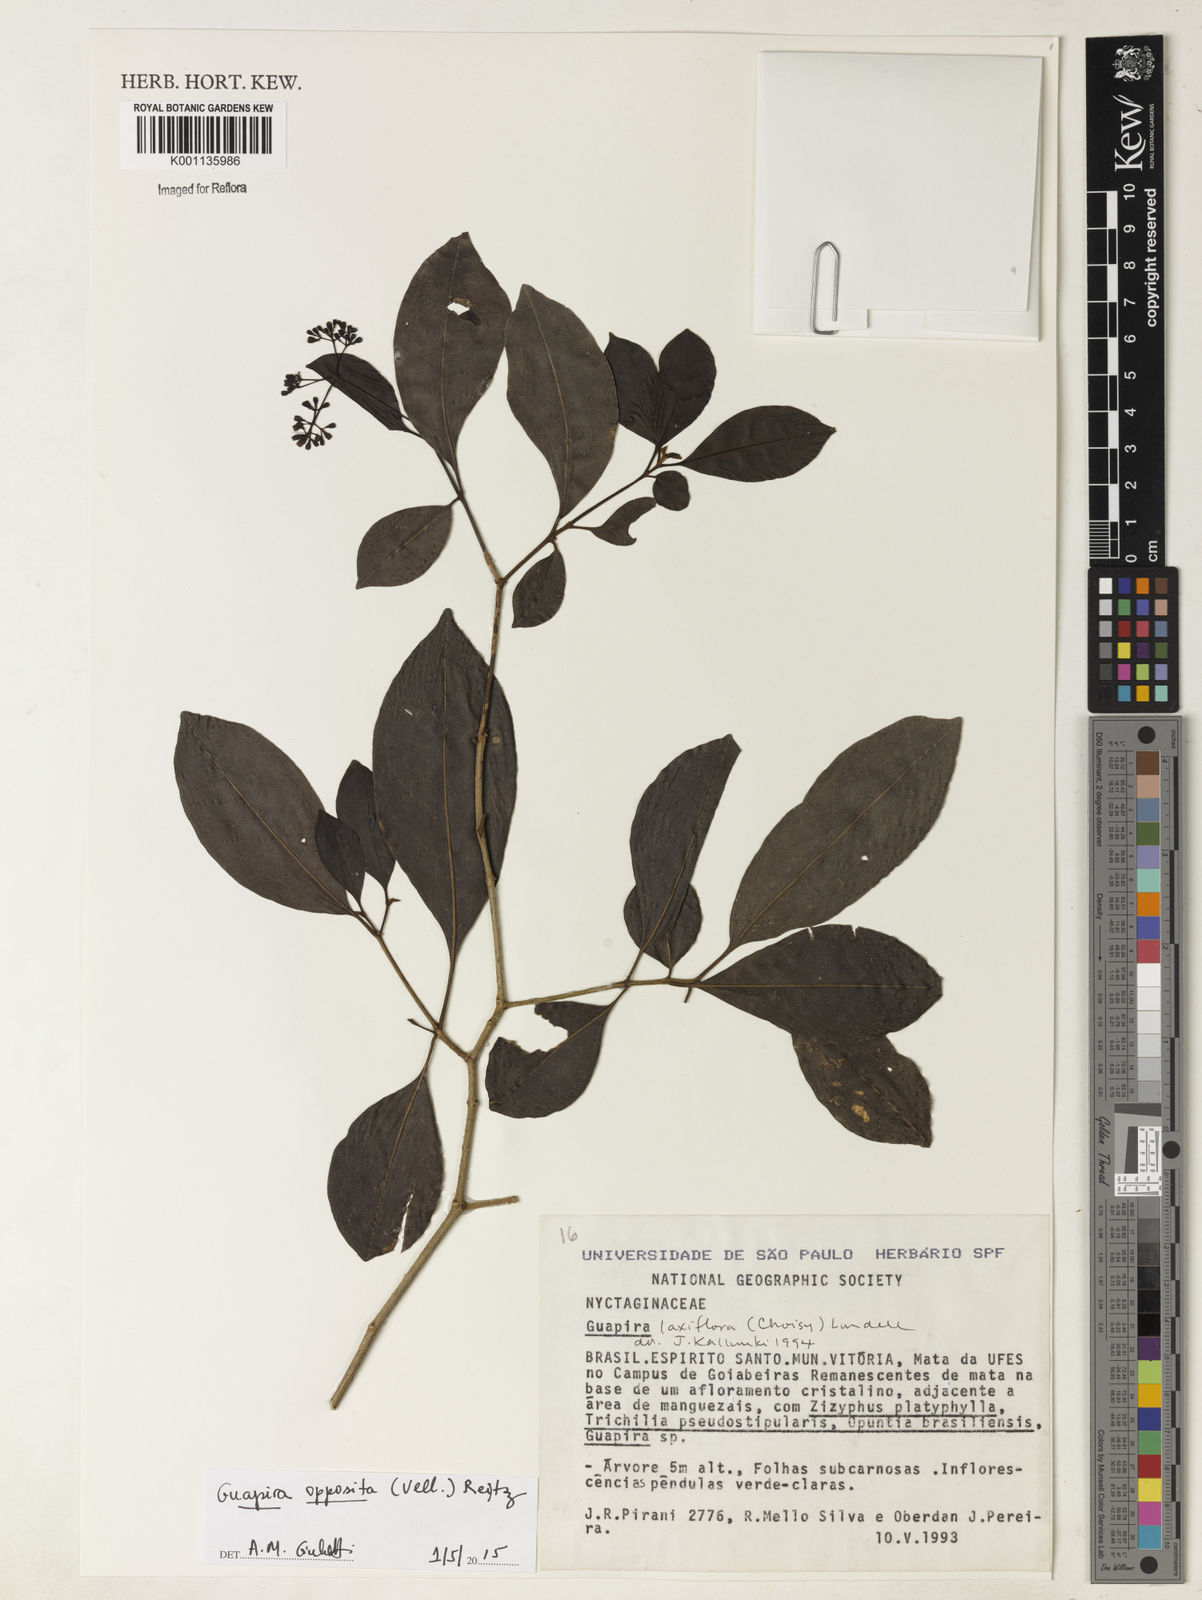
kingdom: Plantae
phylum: Tracheophyta
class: Magnoliopsida
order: Caryophyllales
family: Nyctaginaceae
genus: Guapira
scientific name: Guapira opposita
